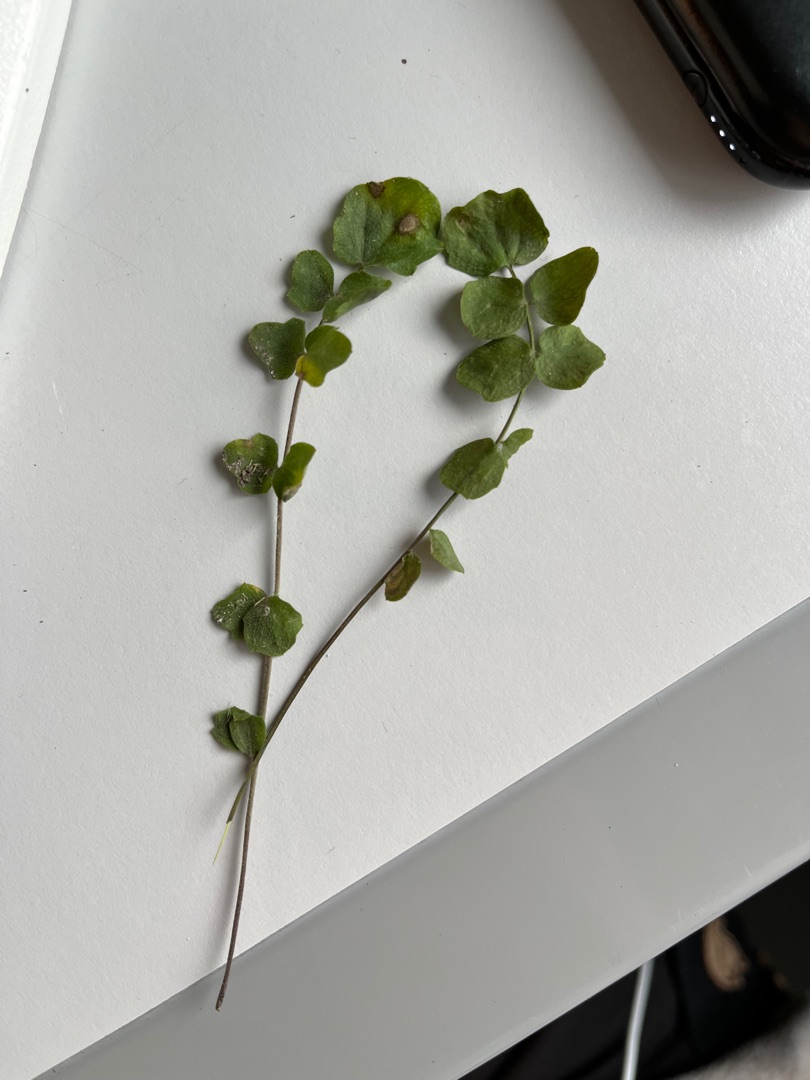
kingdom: Plantae
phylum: Tracheophyta
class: Magnoliopsida
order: Brassicales
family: Brassicaceae
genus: Cardamine
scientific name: Cardamine pratensis
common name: Engkarse
